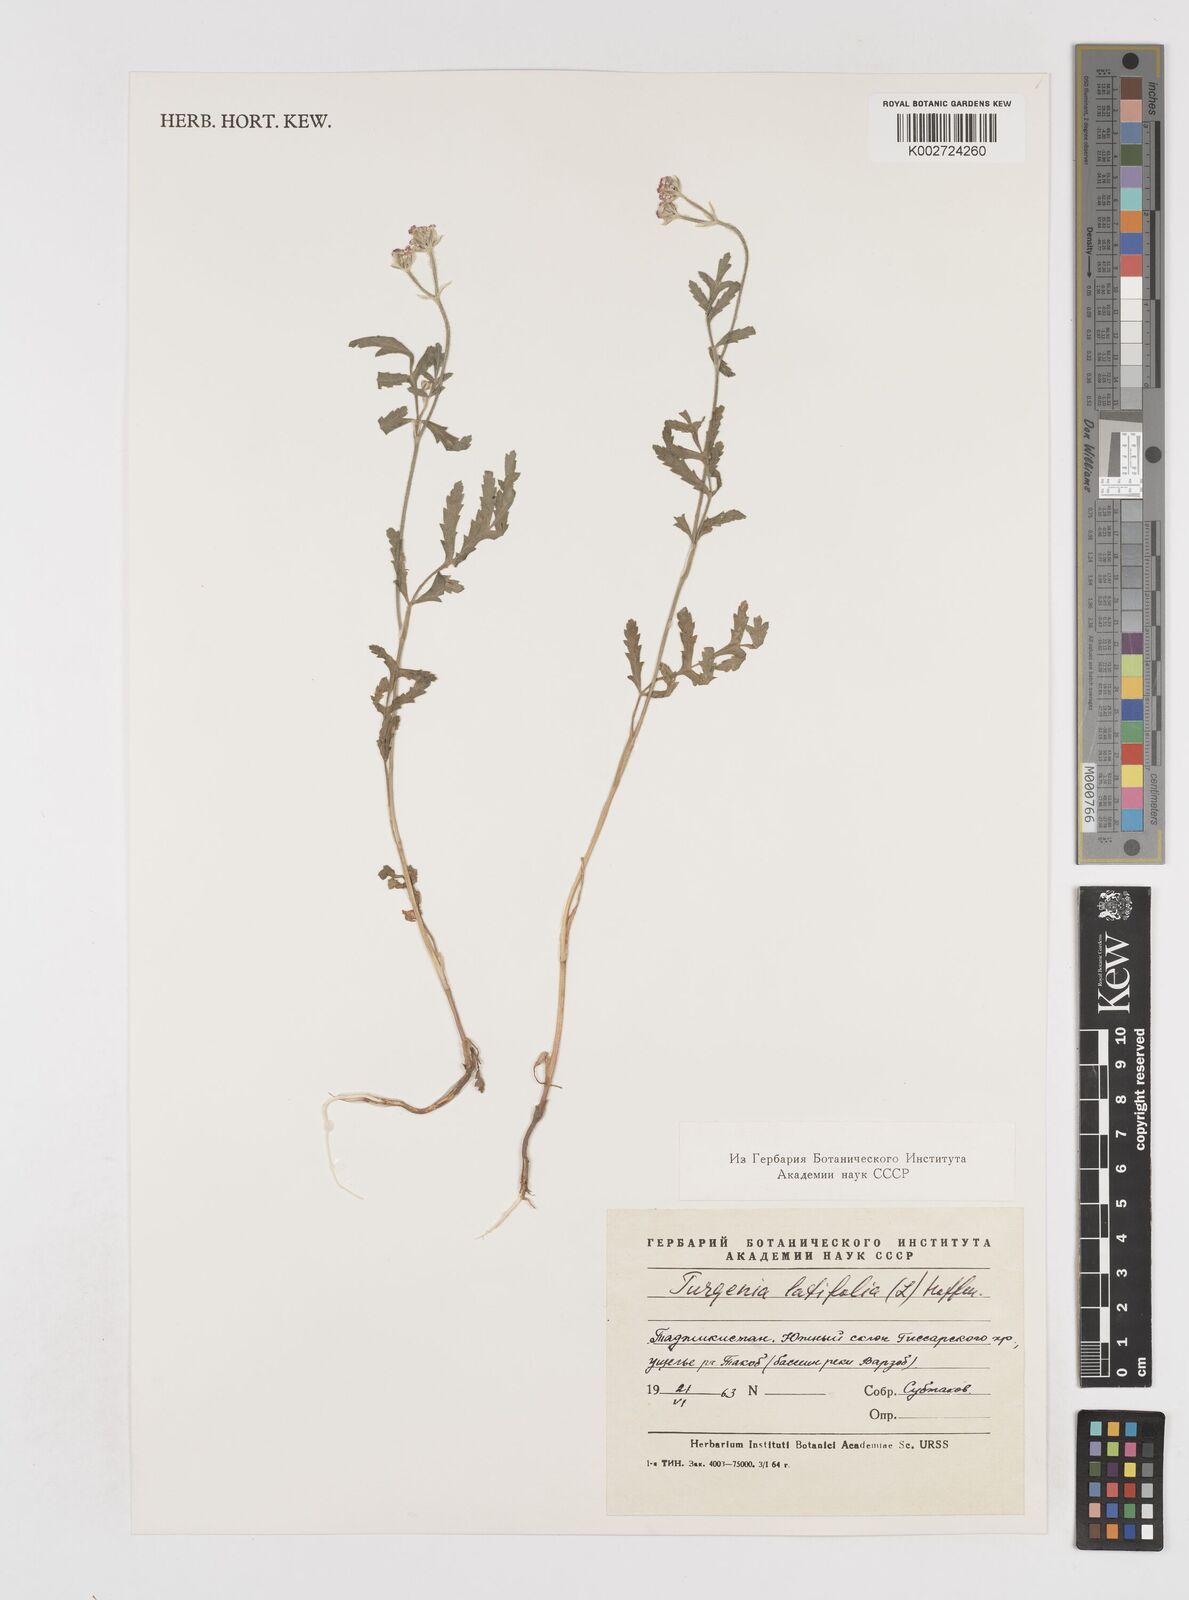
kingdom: Plantae
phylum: Tracheophyta
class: Magnoliopsida
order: Apiales
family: Apiaceae
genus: Turgenia
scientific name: Turgenia latifolia
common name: Greater bur-parsley
